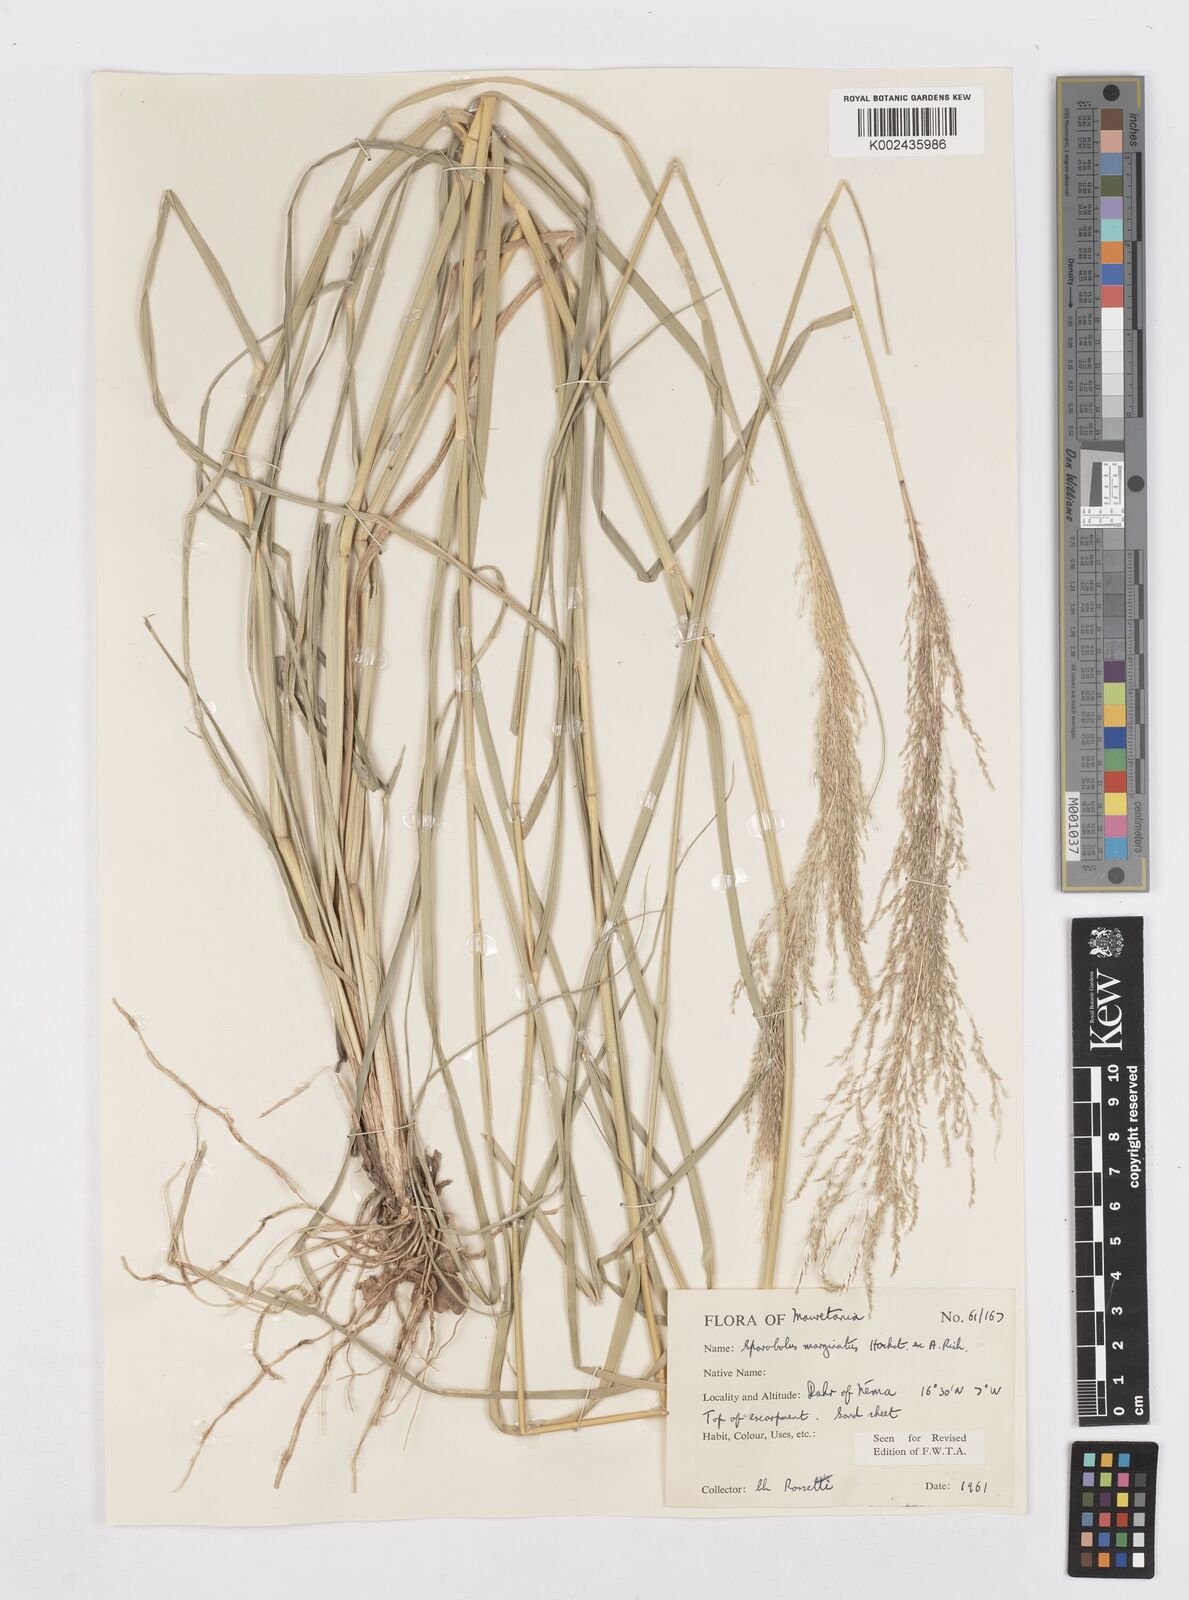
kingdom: Plantae
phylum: Tracheophyta
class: Liliopsida
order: Poales
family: Poaceae
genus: Sporobolus
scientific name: Sporobolus ioclados
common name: Pan dropseed
